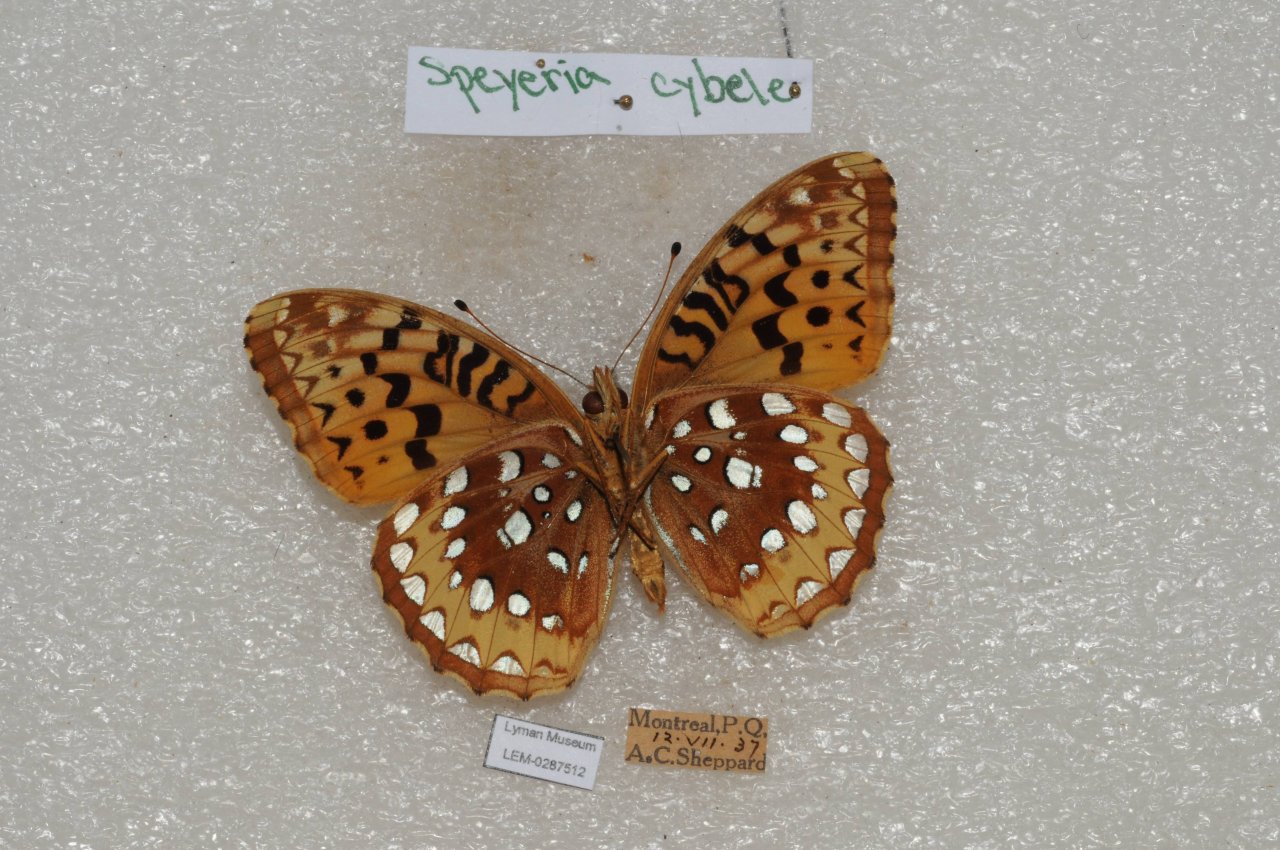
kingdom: Animalia
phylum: Arthropoda
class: Insecta
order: Lepidoptera
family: Nymphalidae
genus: Speyeria
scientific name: Speyeria cybele
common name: Great Spangled Fritillary
